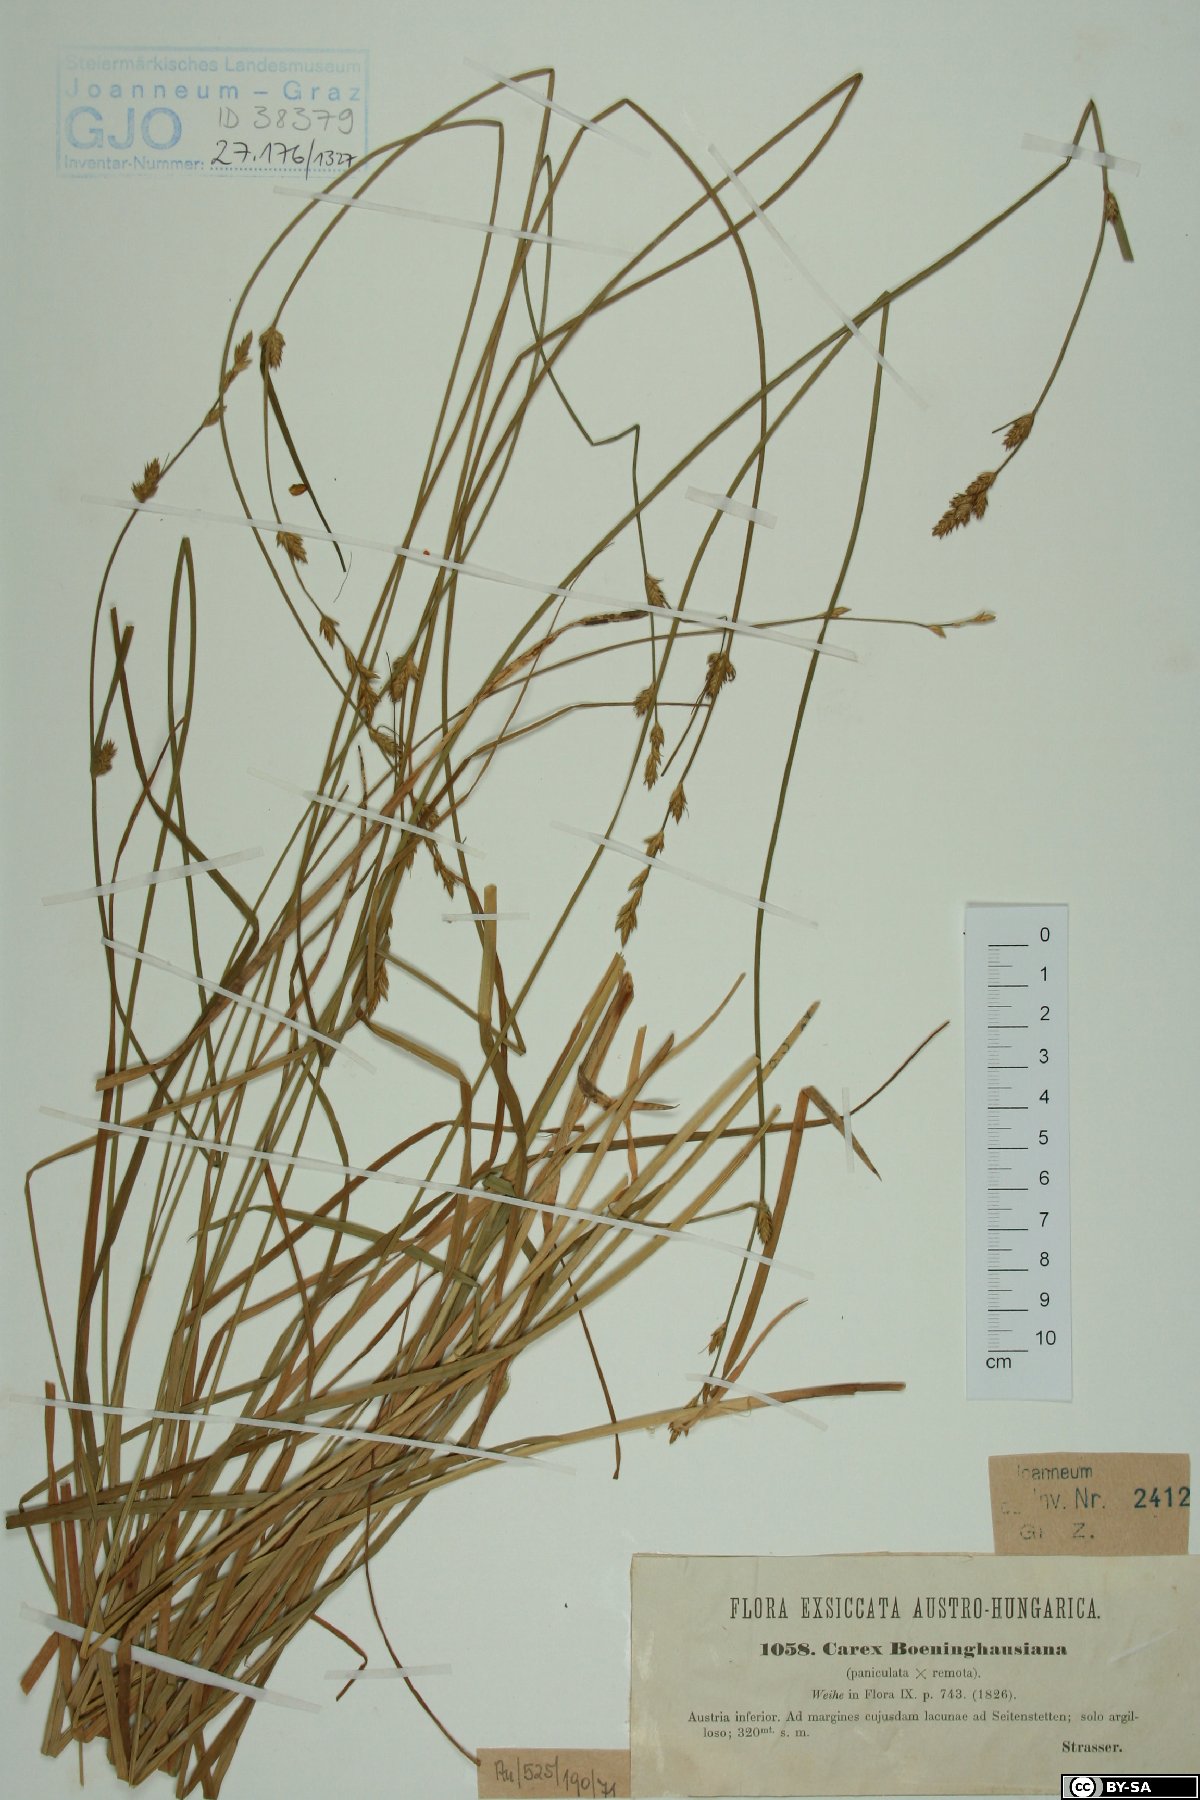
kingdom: Plantae
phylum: Tracheophyta
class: Liliopsida
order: Poales
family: Cyperaceae
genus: Carex
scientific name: Carex boenninghausiana
